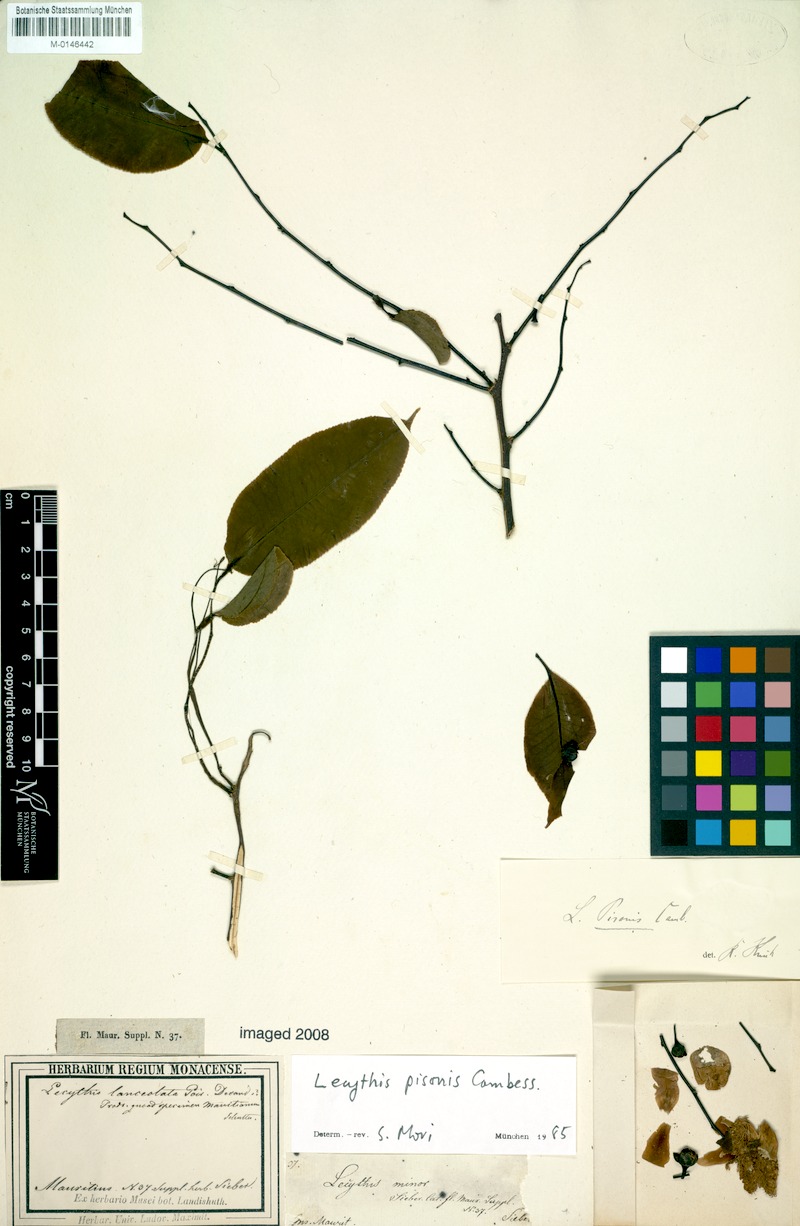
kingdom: Plantae
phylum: Tracheophyta
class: Magnoliopsida
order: Ericales
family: Lecythidaceae
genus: Lecythis
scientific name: Lecythis pisonis
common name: Paradise-nut
